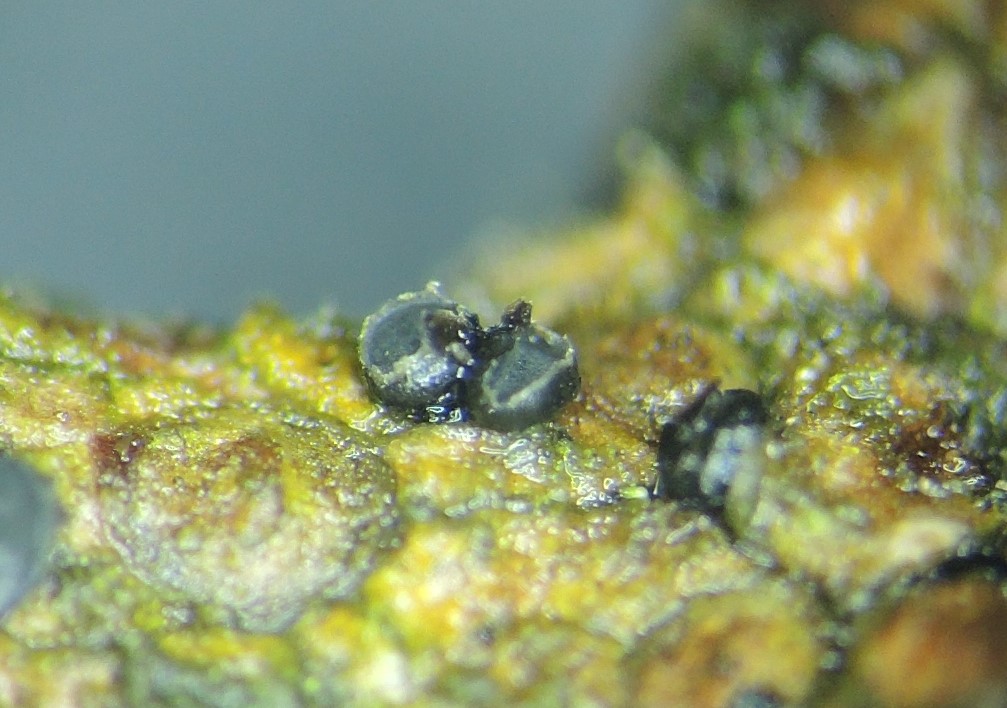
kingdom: Fungi
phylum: Ascomycota
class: Leotiomycetes
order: Helotiales
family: Godroniaceae
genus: Grovesiella
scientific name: Grovesiella abieticola
